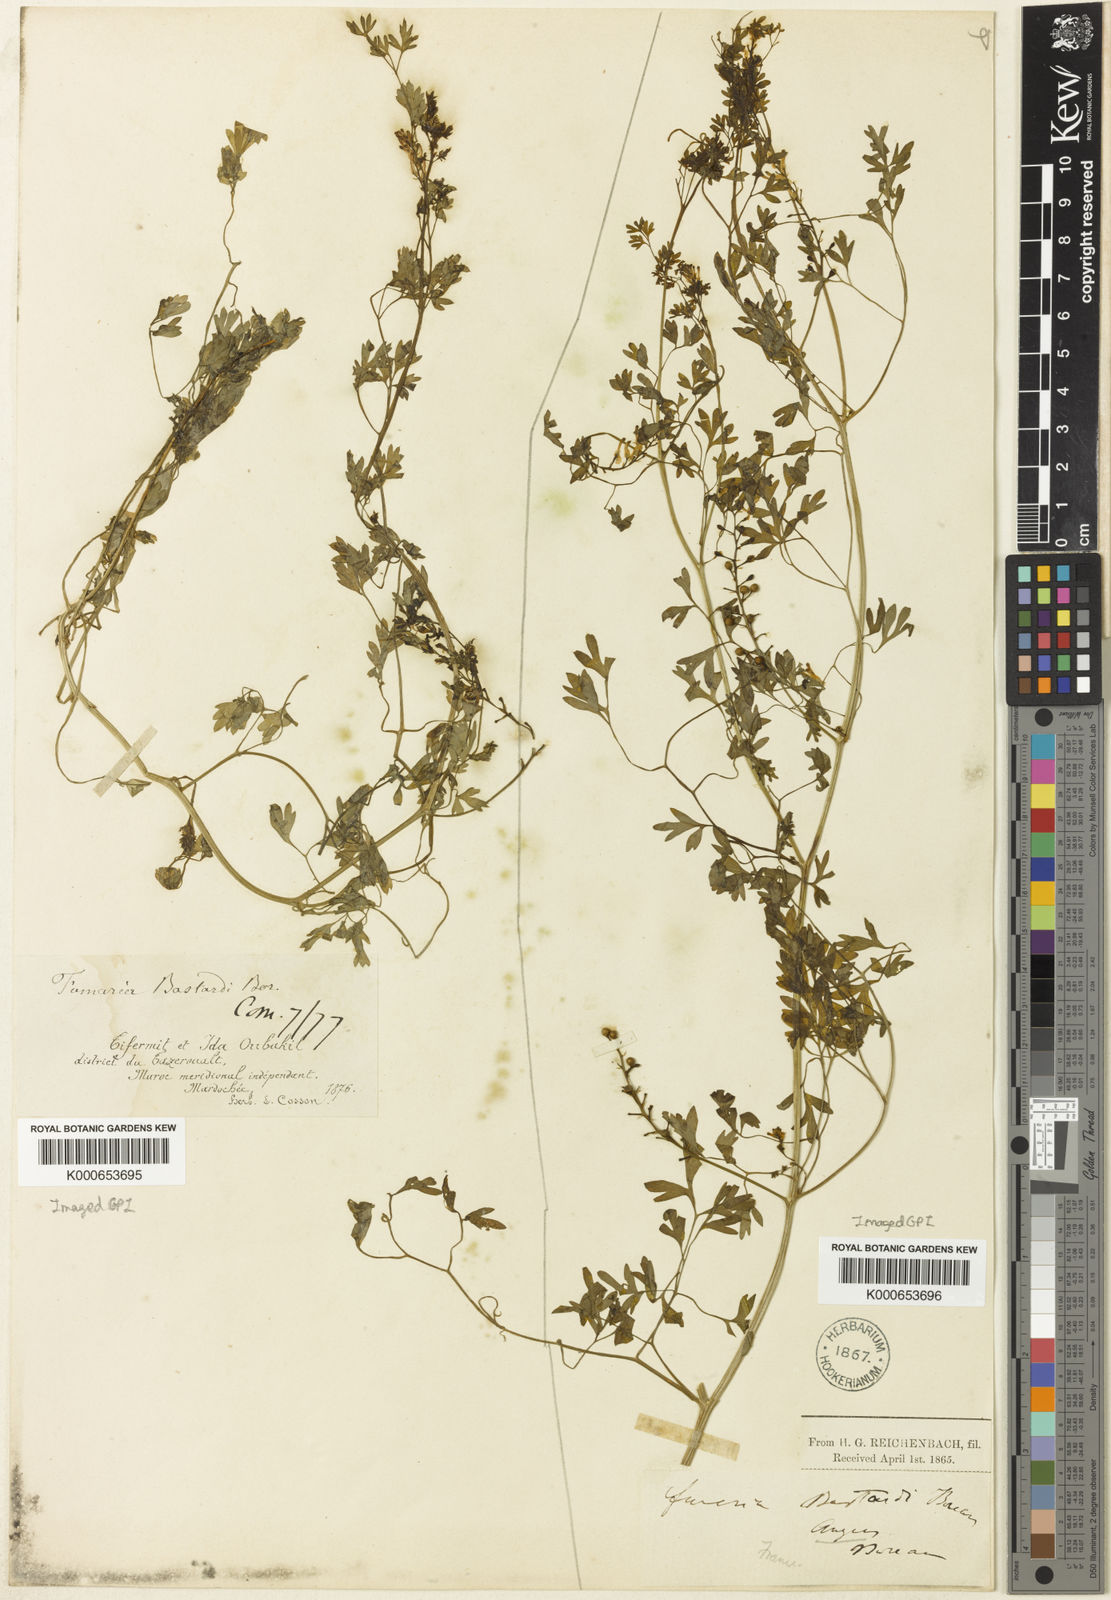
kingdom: Plantae
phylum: Tracheophyta
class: Magnoliopsida
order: Ranunculales
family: Papaveraceae
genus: Fumaria
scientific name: Fumaria bastardii
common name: Tall ramping-fumitory
